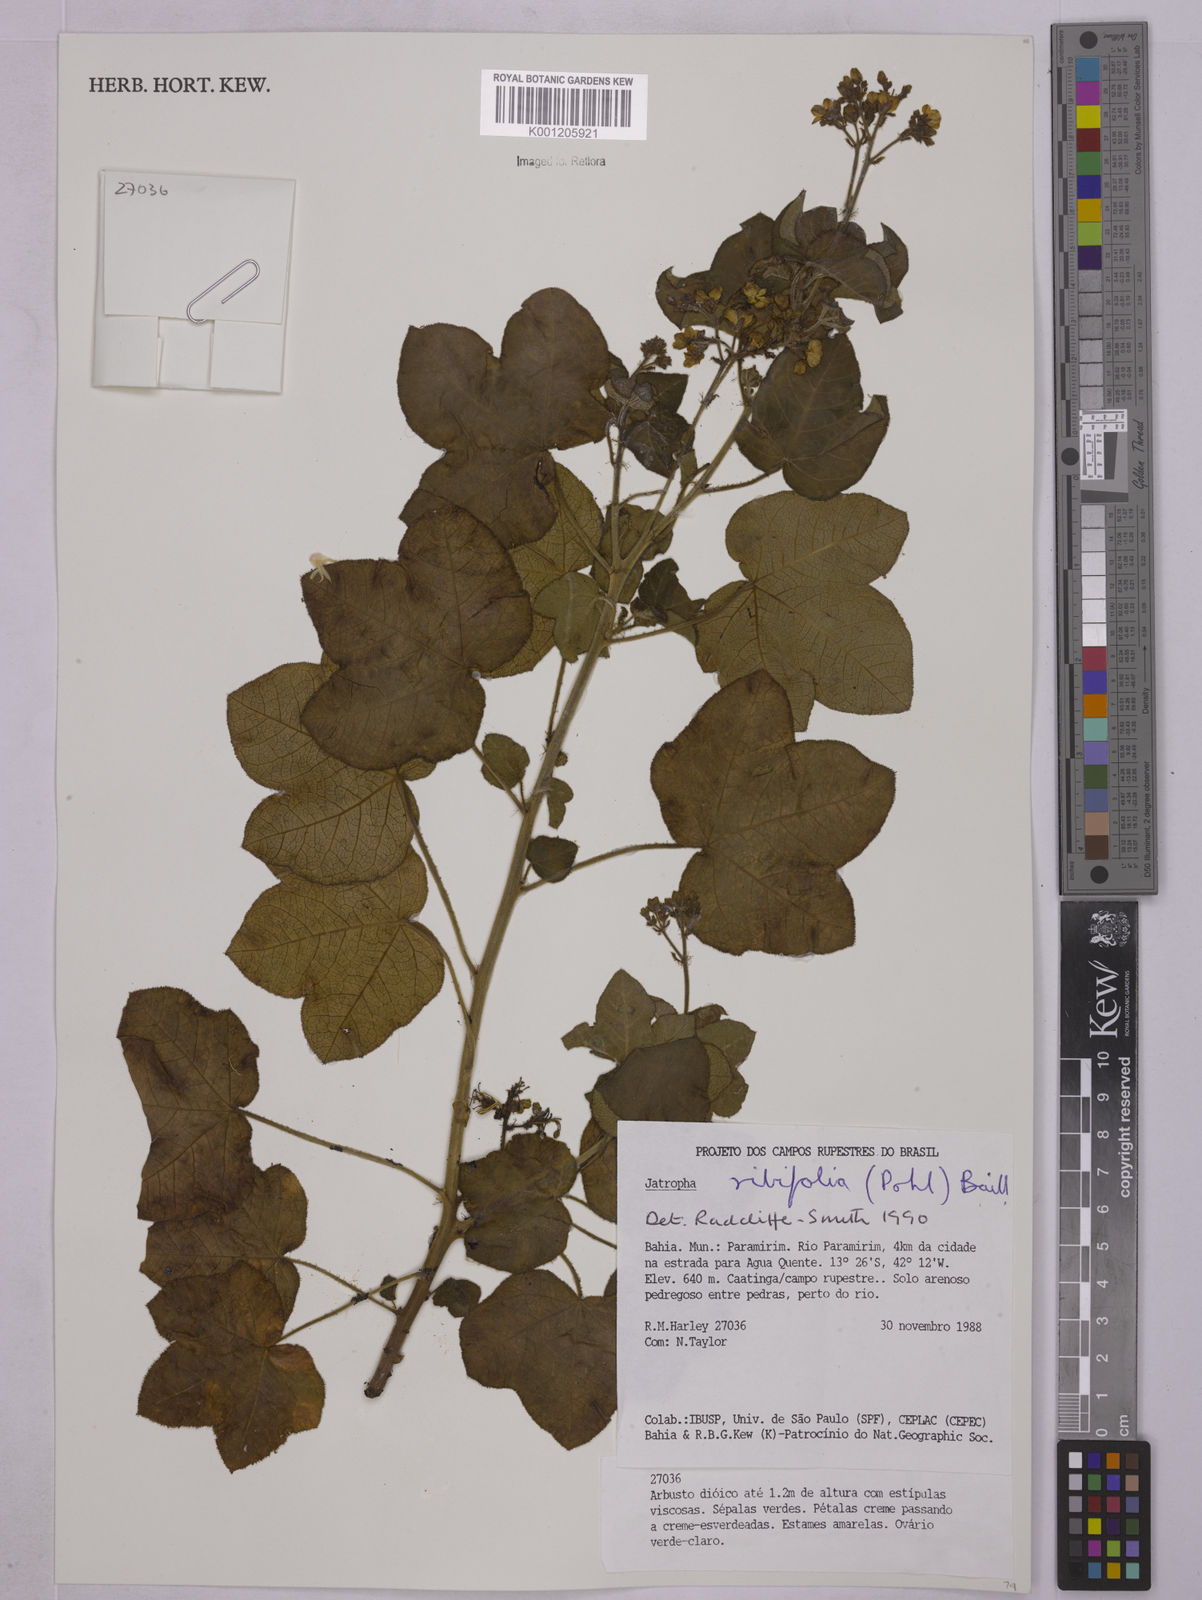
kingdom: Plantae
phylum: Tracheophyta
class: Magnoliopsida
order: Malpighiales
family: Euphorbiaceae
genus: Jatropha
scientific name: Jatropha ribifolia
